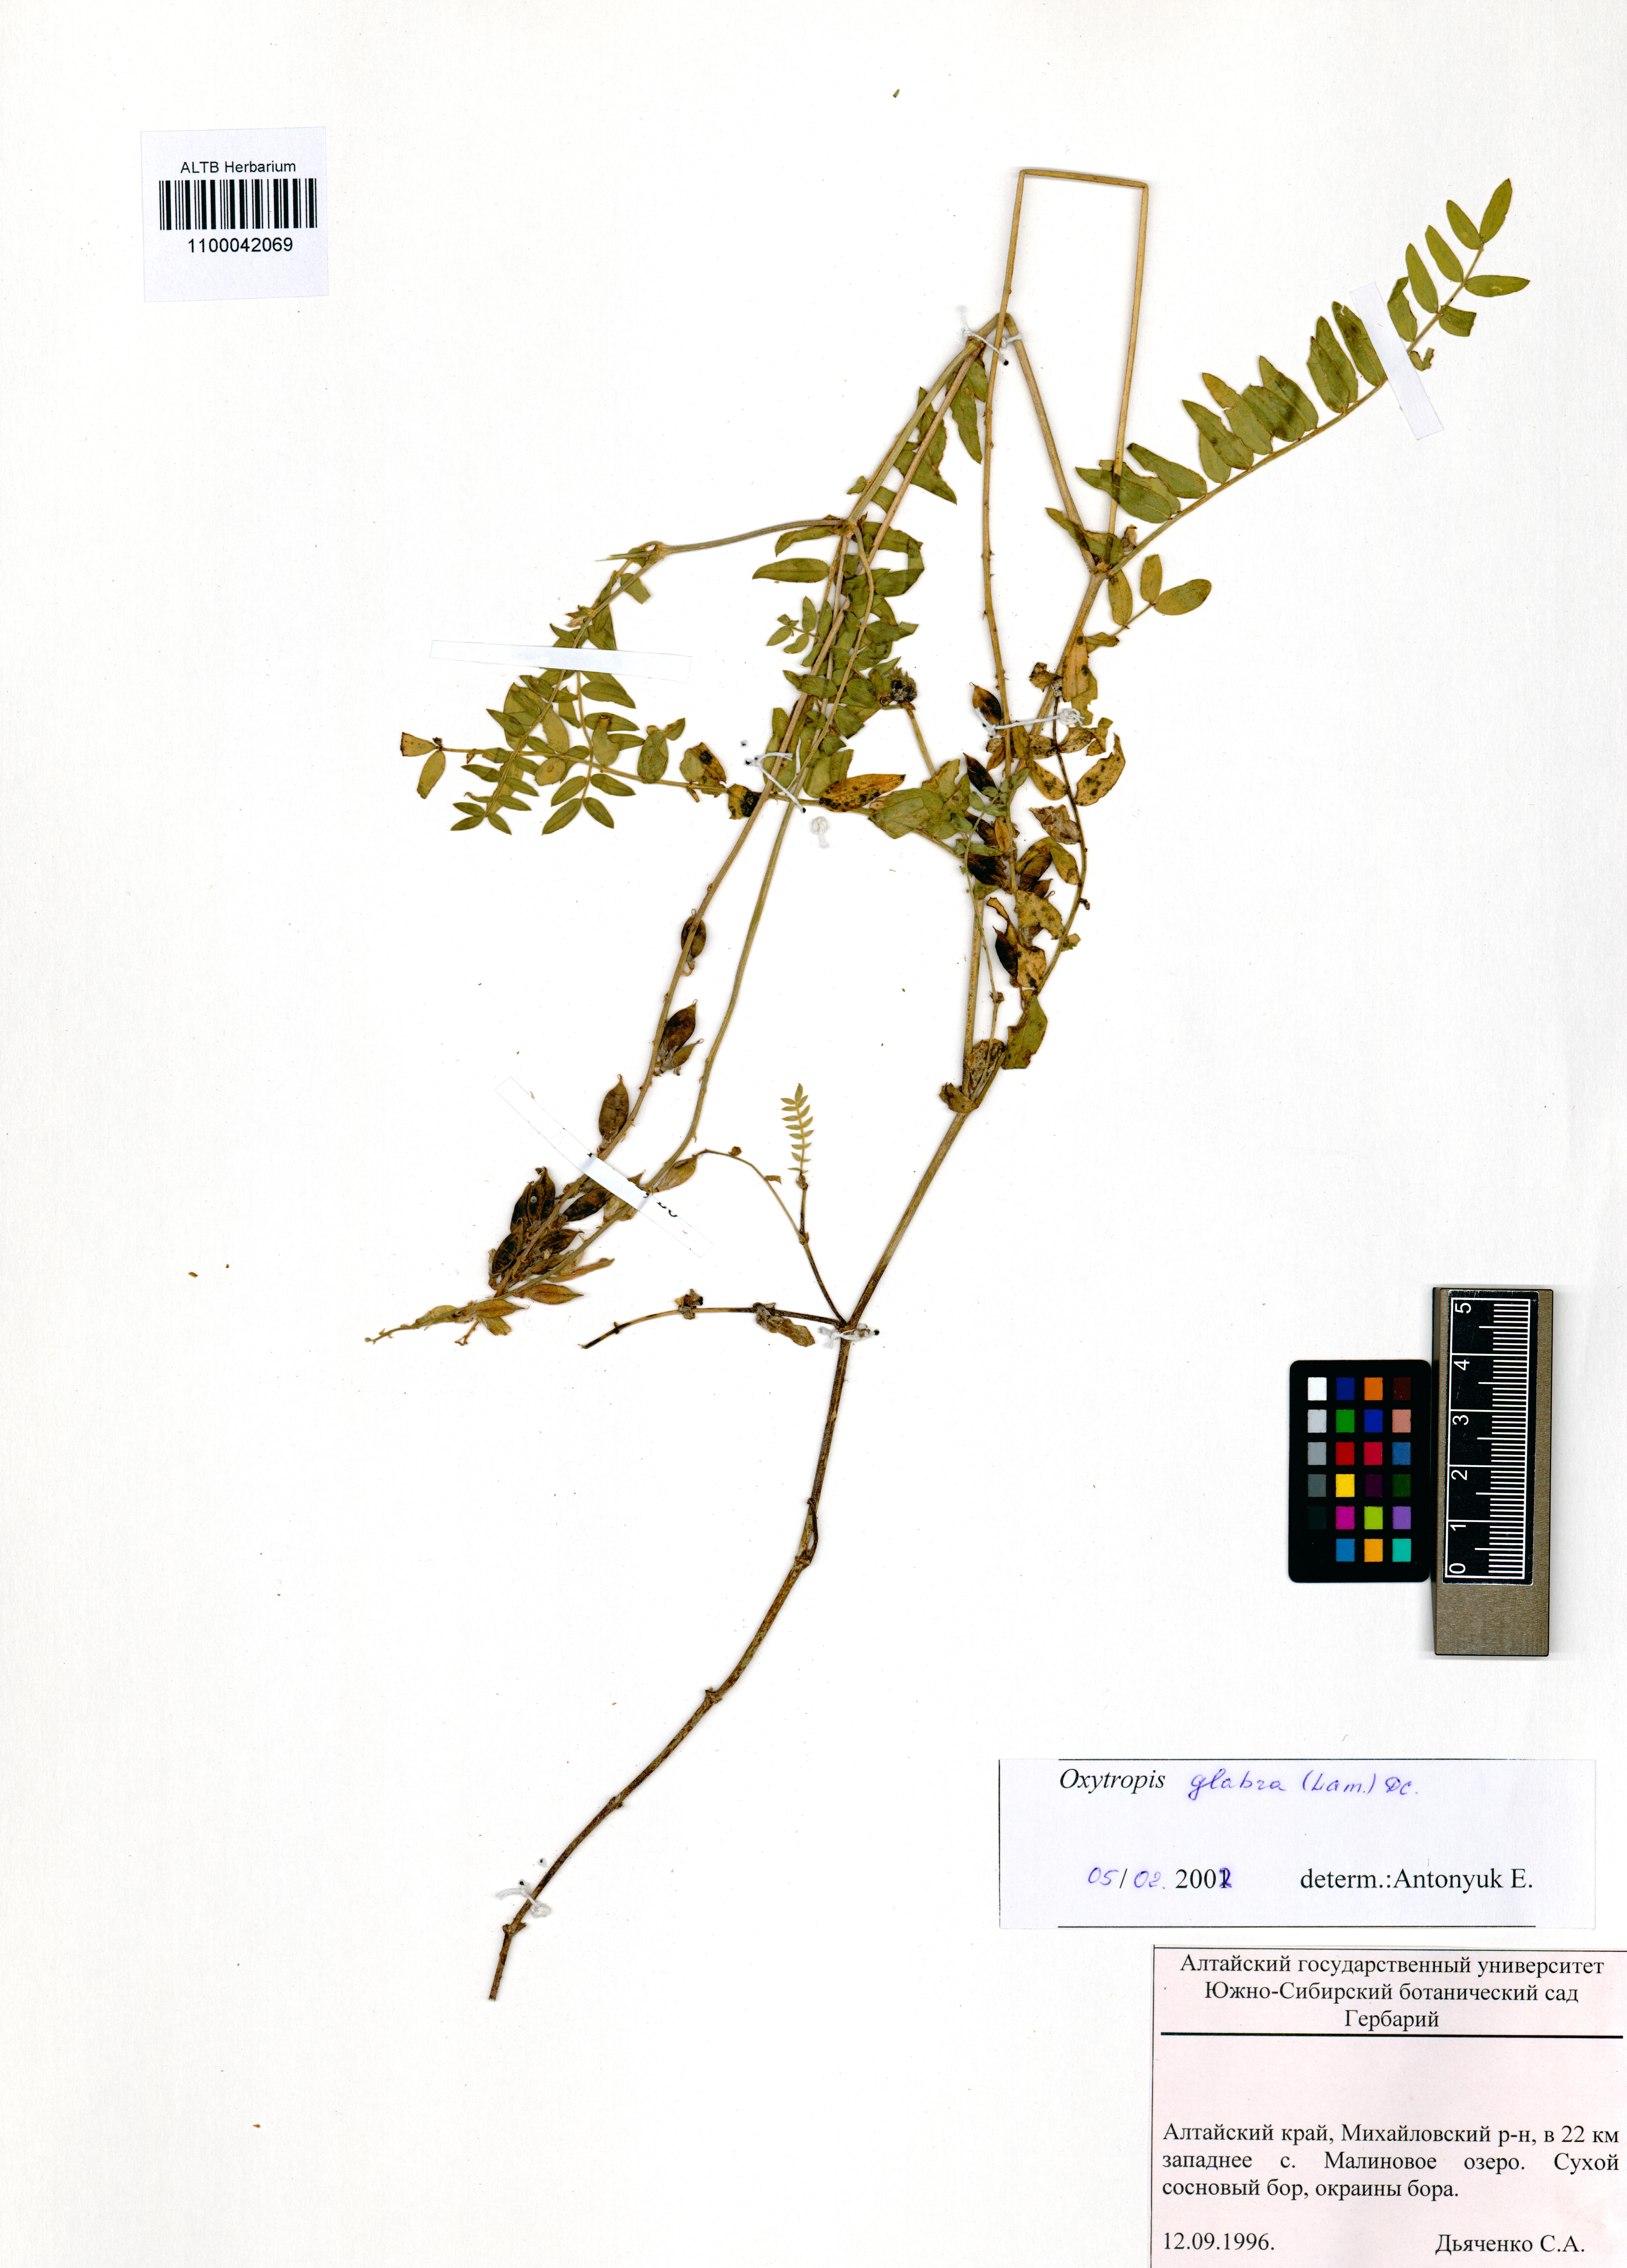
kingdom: Plantae
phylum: Tracheophyta
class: Magnoliopsida
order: Fabales
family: Fabaceae
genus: Oxytropis
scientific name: Oxytropis glabra
